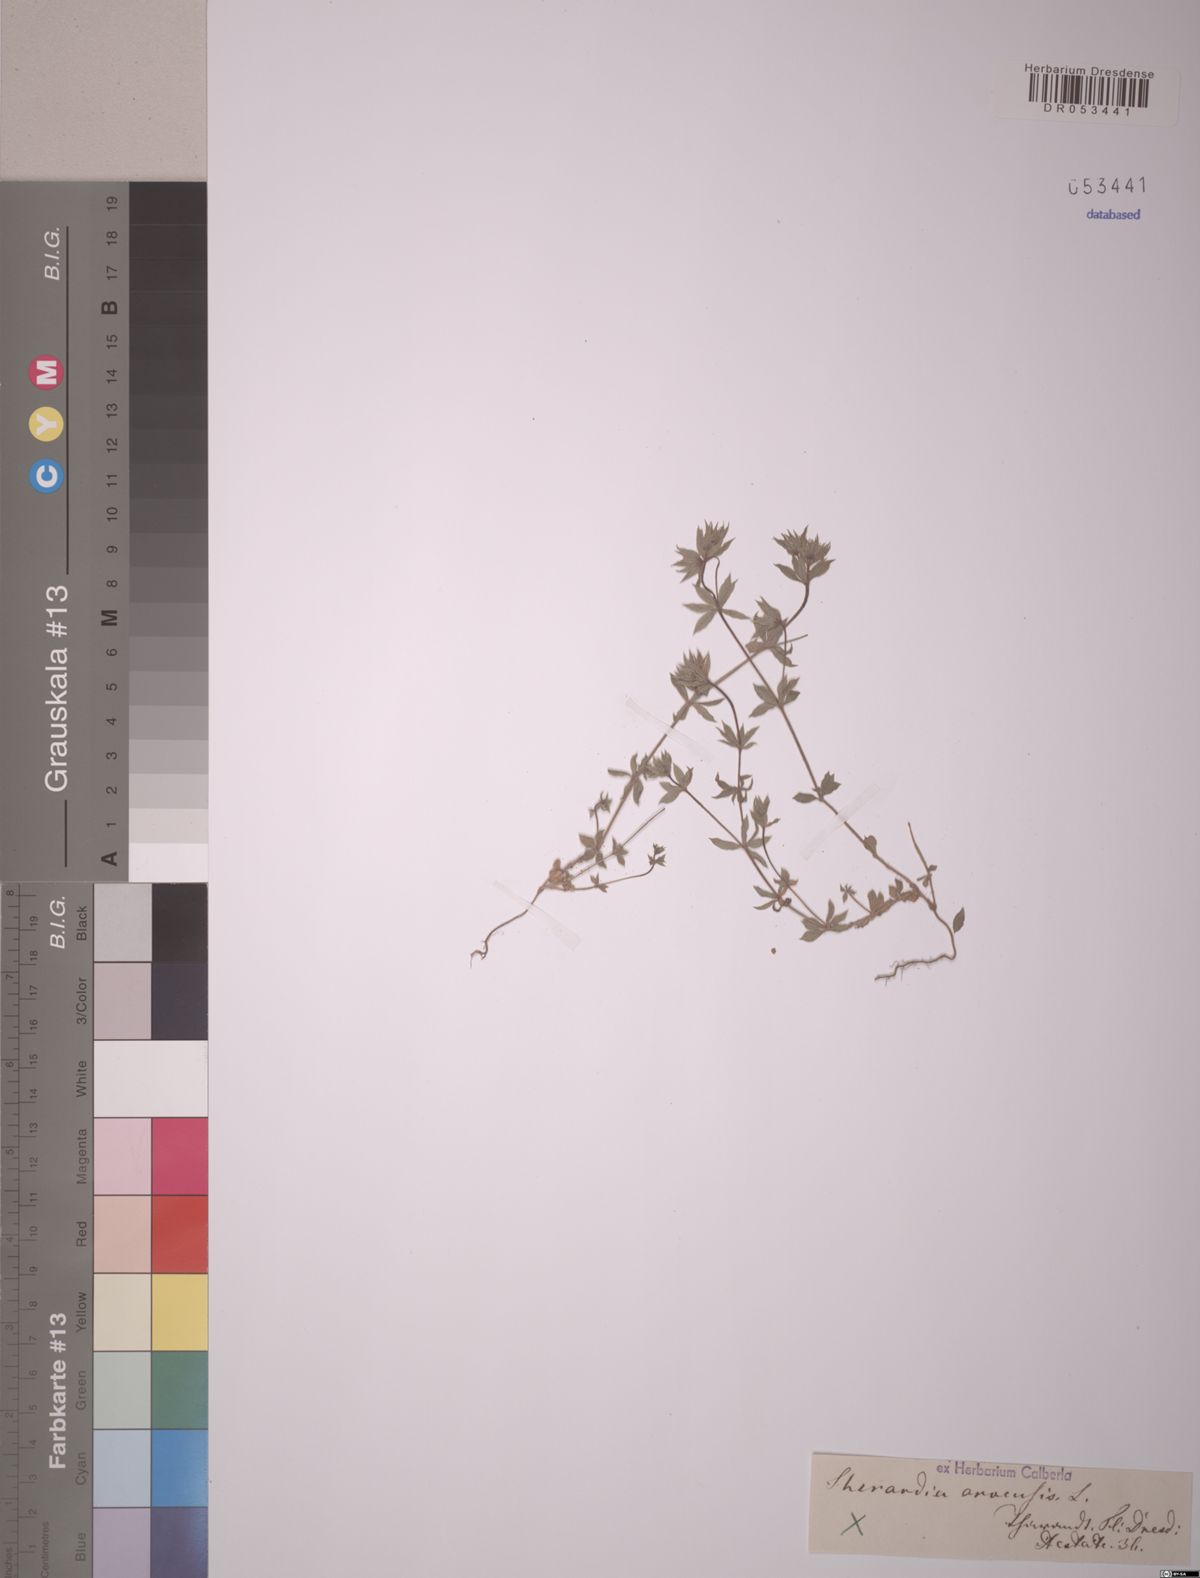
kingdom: Plantae
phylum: Tracheophyta
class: Magnoliopsida
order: Gentianales
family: Rubiaceae
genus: Sherardia
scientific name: Sherardia arvensis
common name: Field madder
